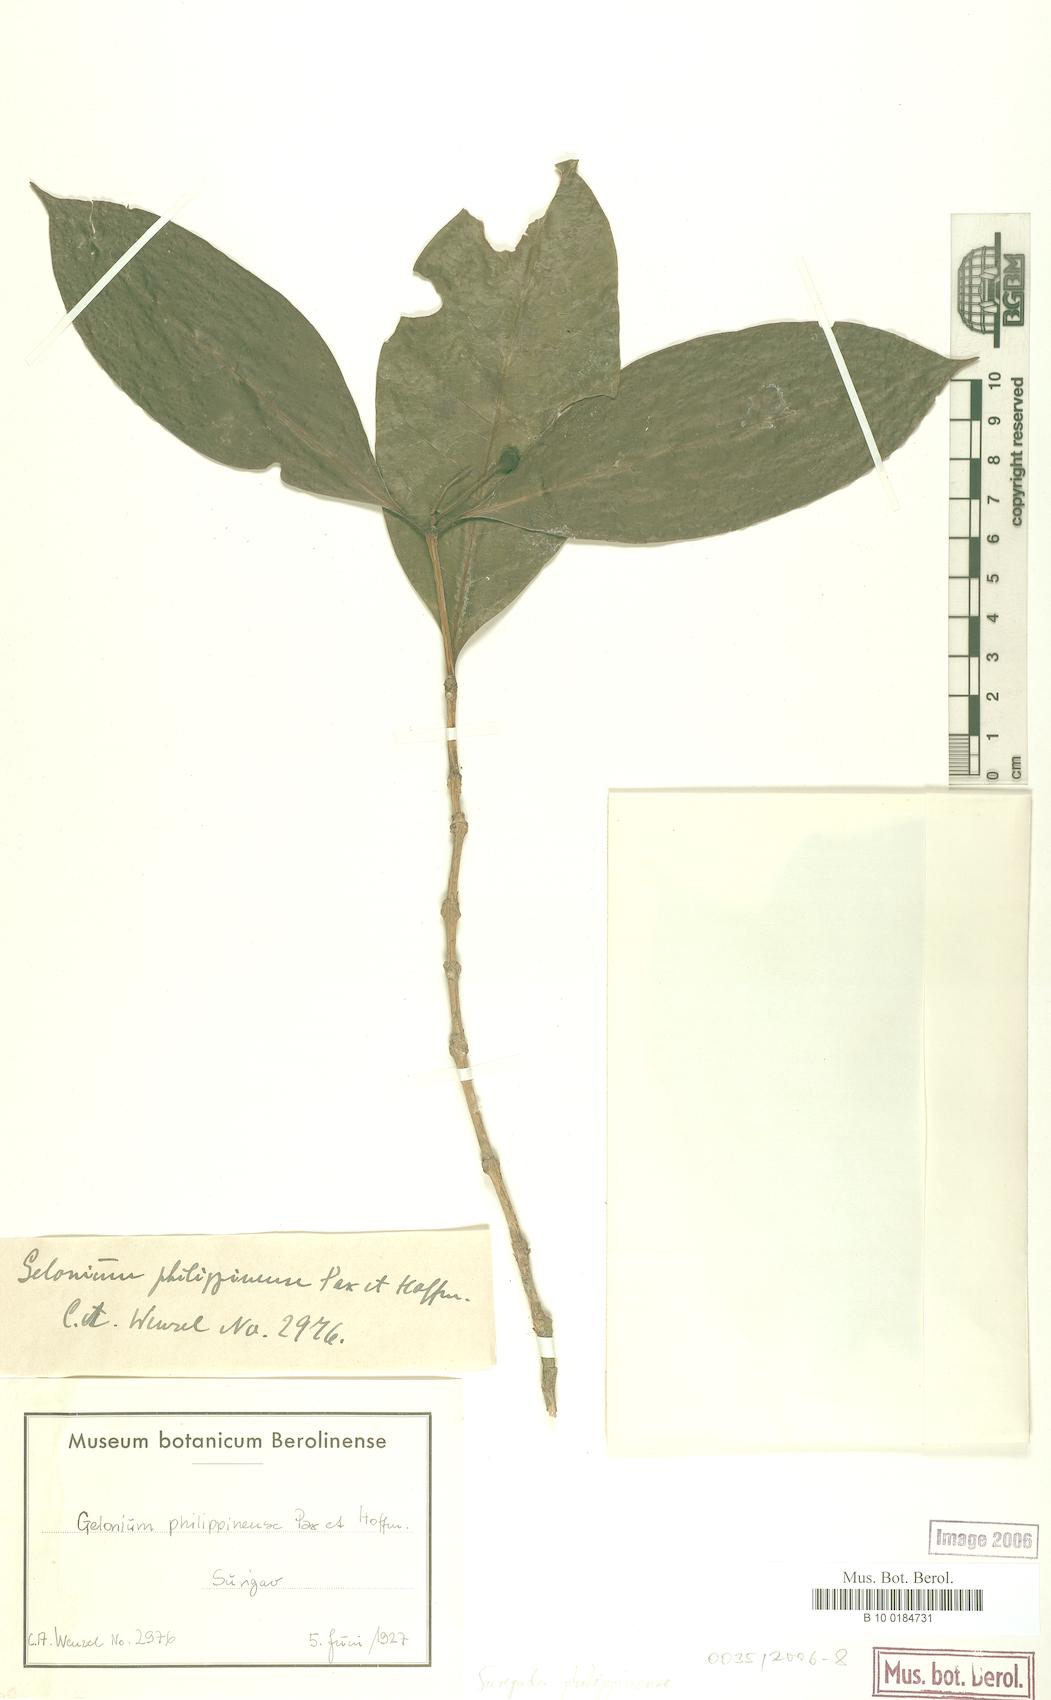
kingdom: Plantae
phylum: Tracheophyta
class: Magnoliopsida
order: Malpighiales
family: Euphorbiaceae
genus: Suregada
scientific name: Suregada glomerulata
